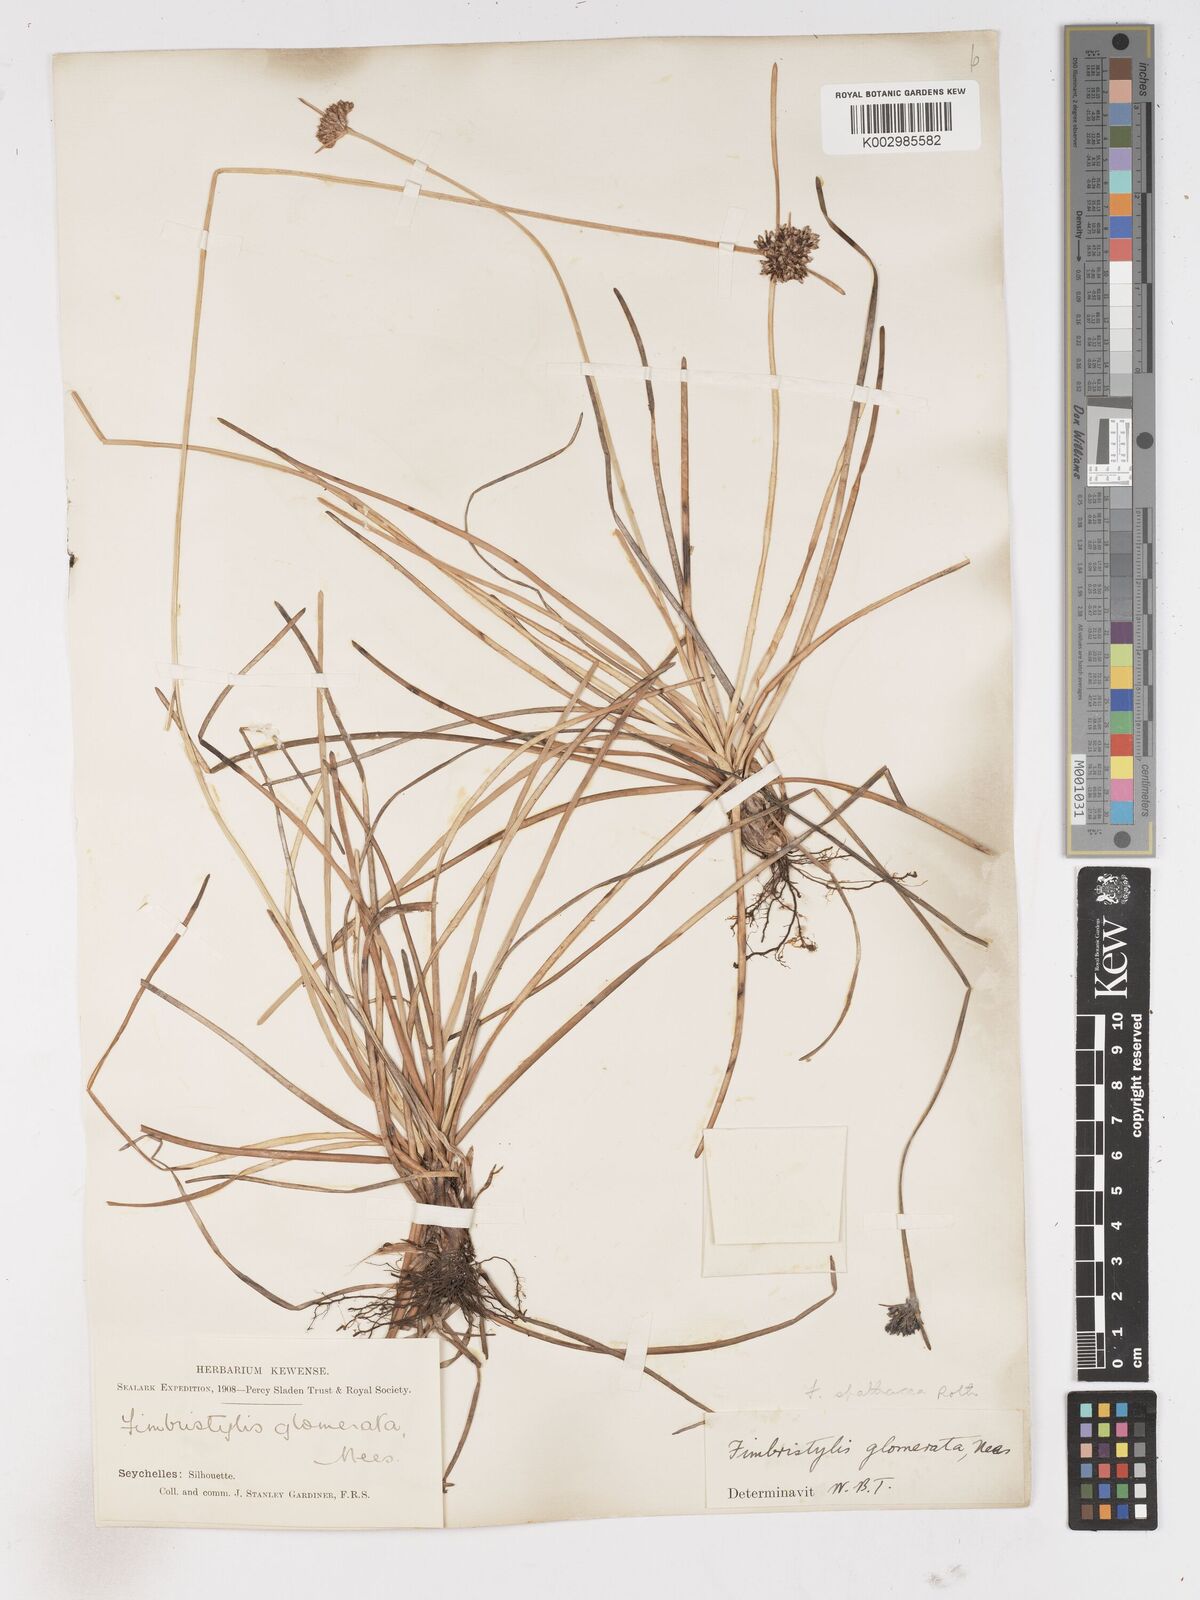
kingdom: Plantae
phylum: Tracheophyta
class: Liliopsida
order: Poales
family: Cyperaceae
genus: Fimbristylis
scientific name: Fimbristylis cymosa
